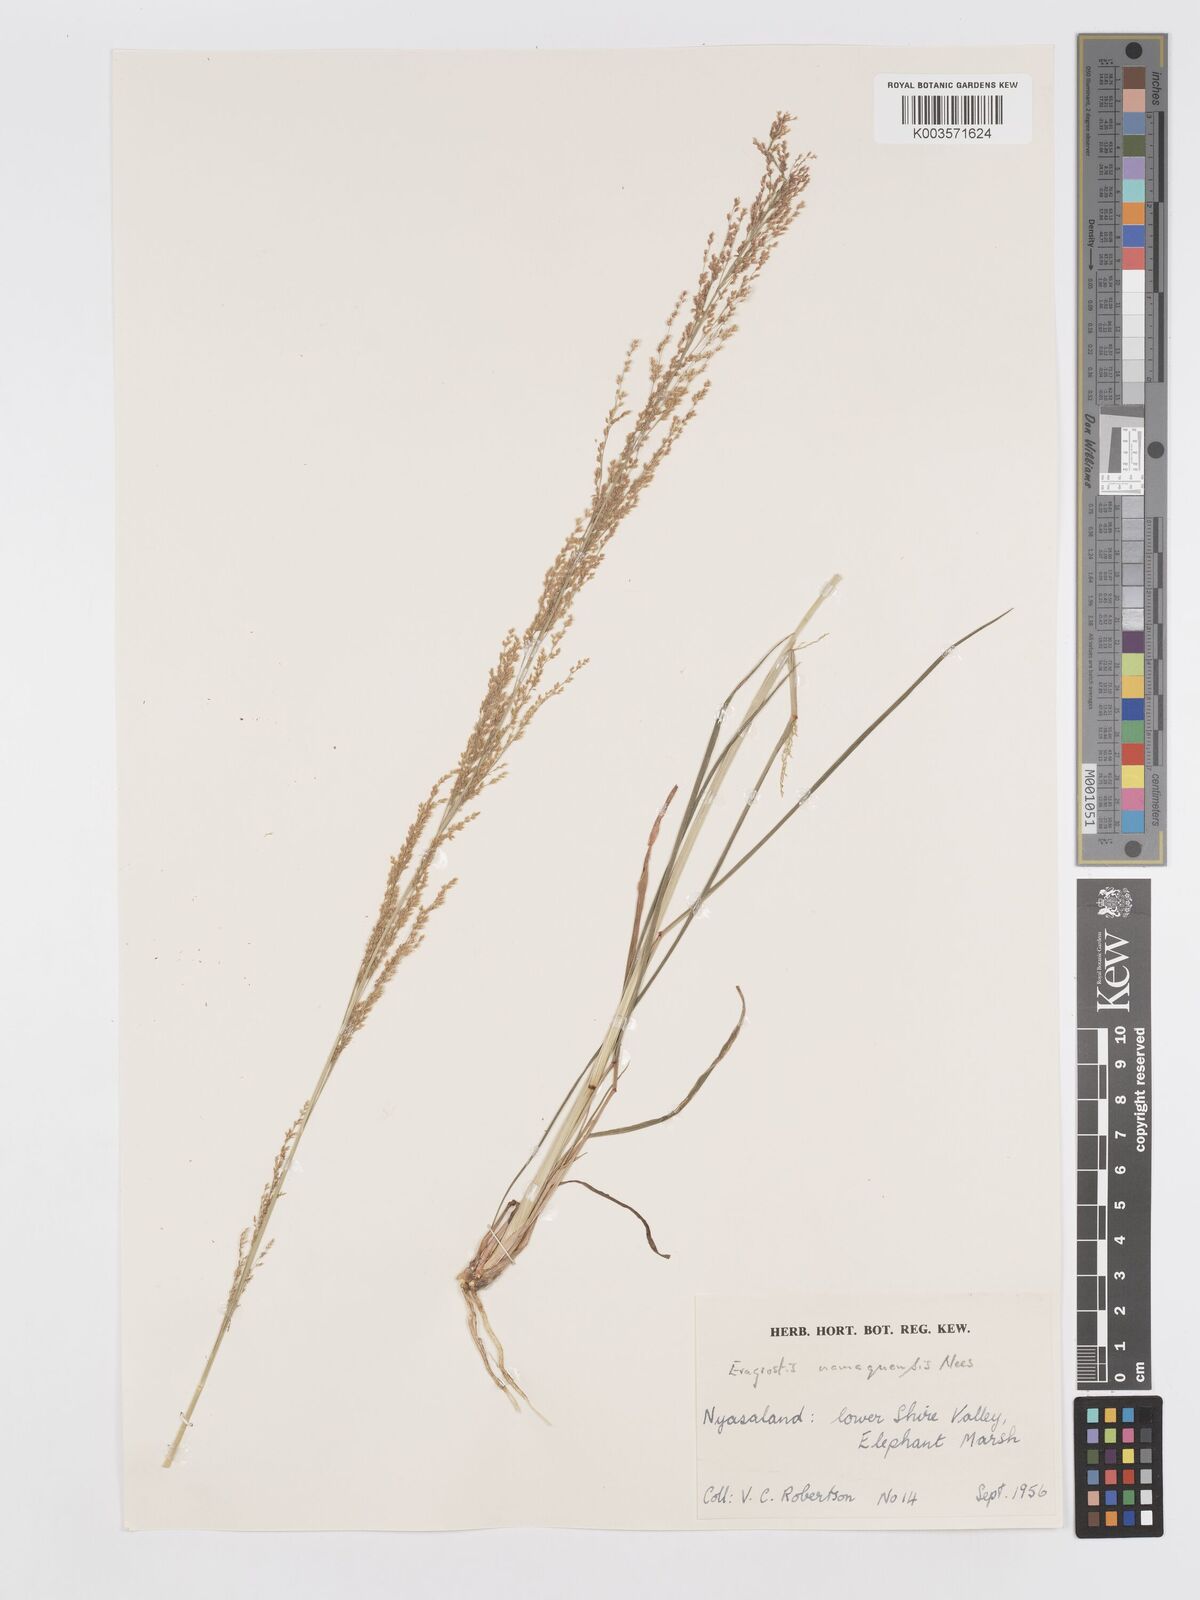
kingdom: Plantae
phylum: Tracheophyta
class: Liliopsida
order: Poales
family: Poaceae
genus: Eragrostis
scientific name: Eragrostis japonica
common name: Pond lovegrass
